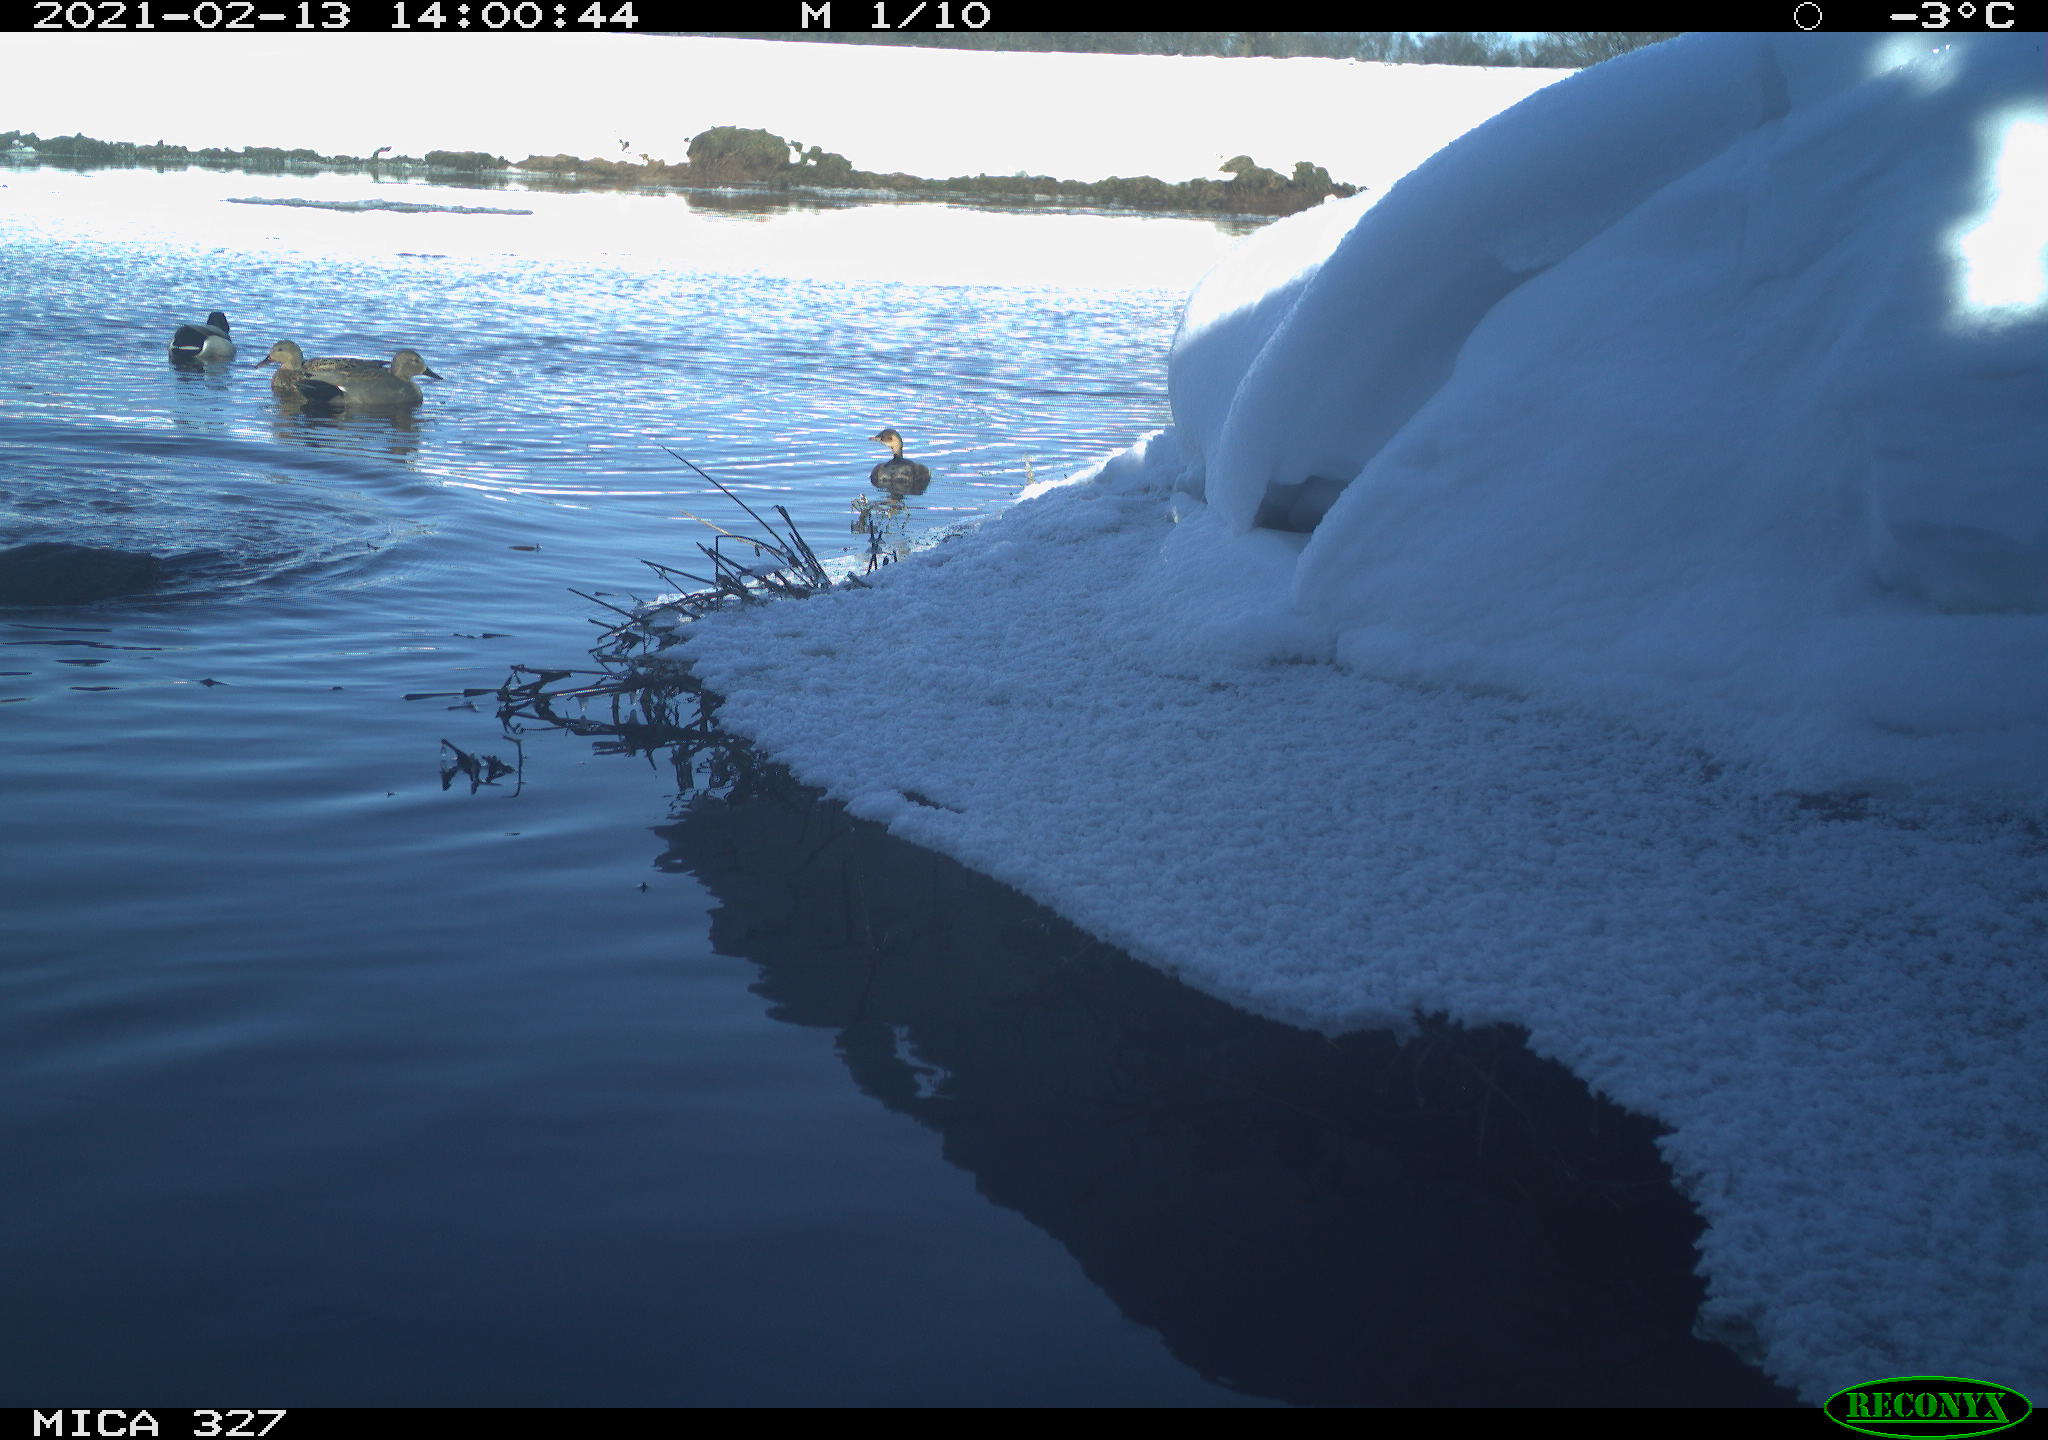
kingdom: Animalia
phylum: Chordata
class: Aves
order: Anseriformes
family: Anatidae
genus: Anas
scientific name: Anas platyrhynchos
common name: Mallard
